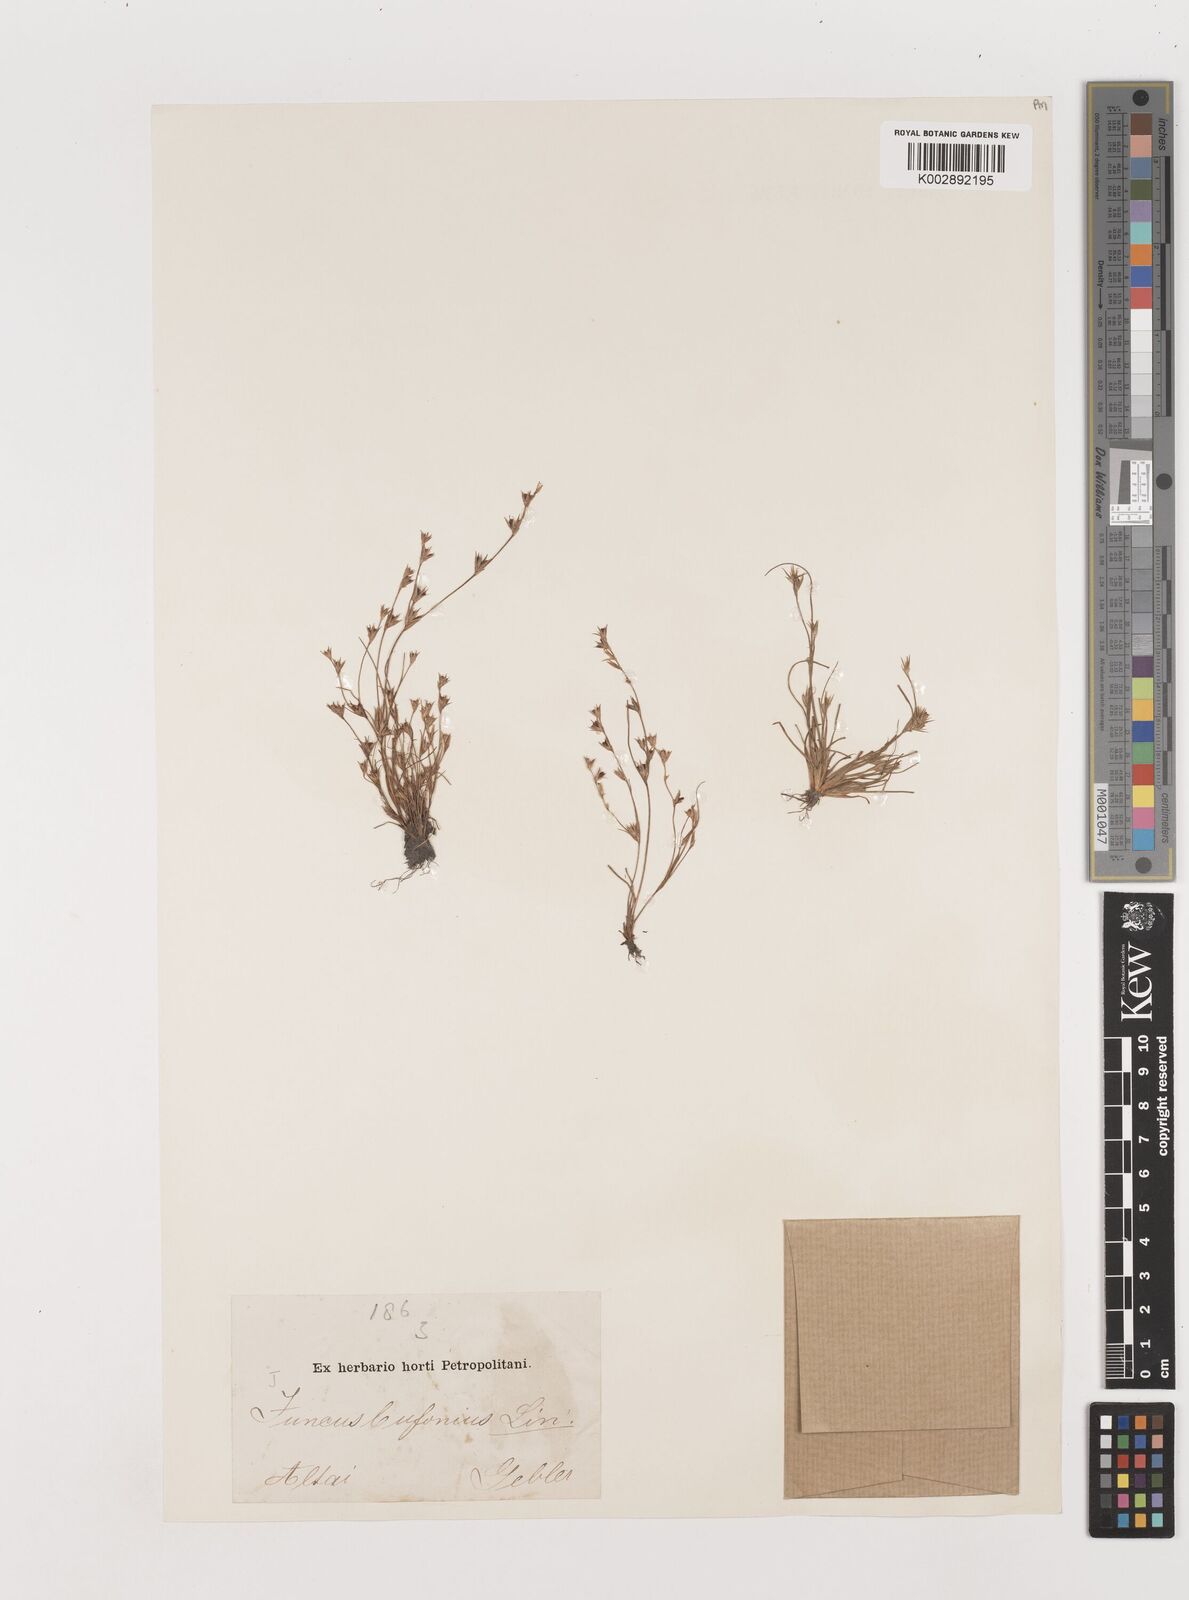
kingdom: Plantae
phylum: Tracheophyta
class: Liliopsida
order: Poales
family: Juncaceae
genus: Juncus
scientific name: Juncus bufonius
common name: Toad rush
